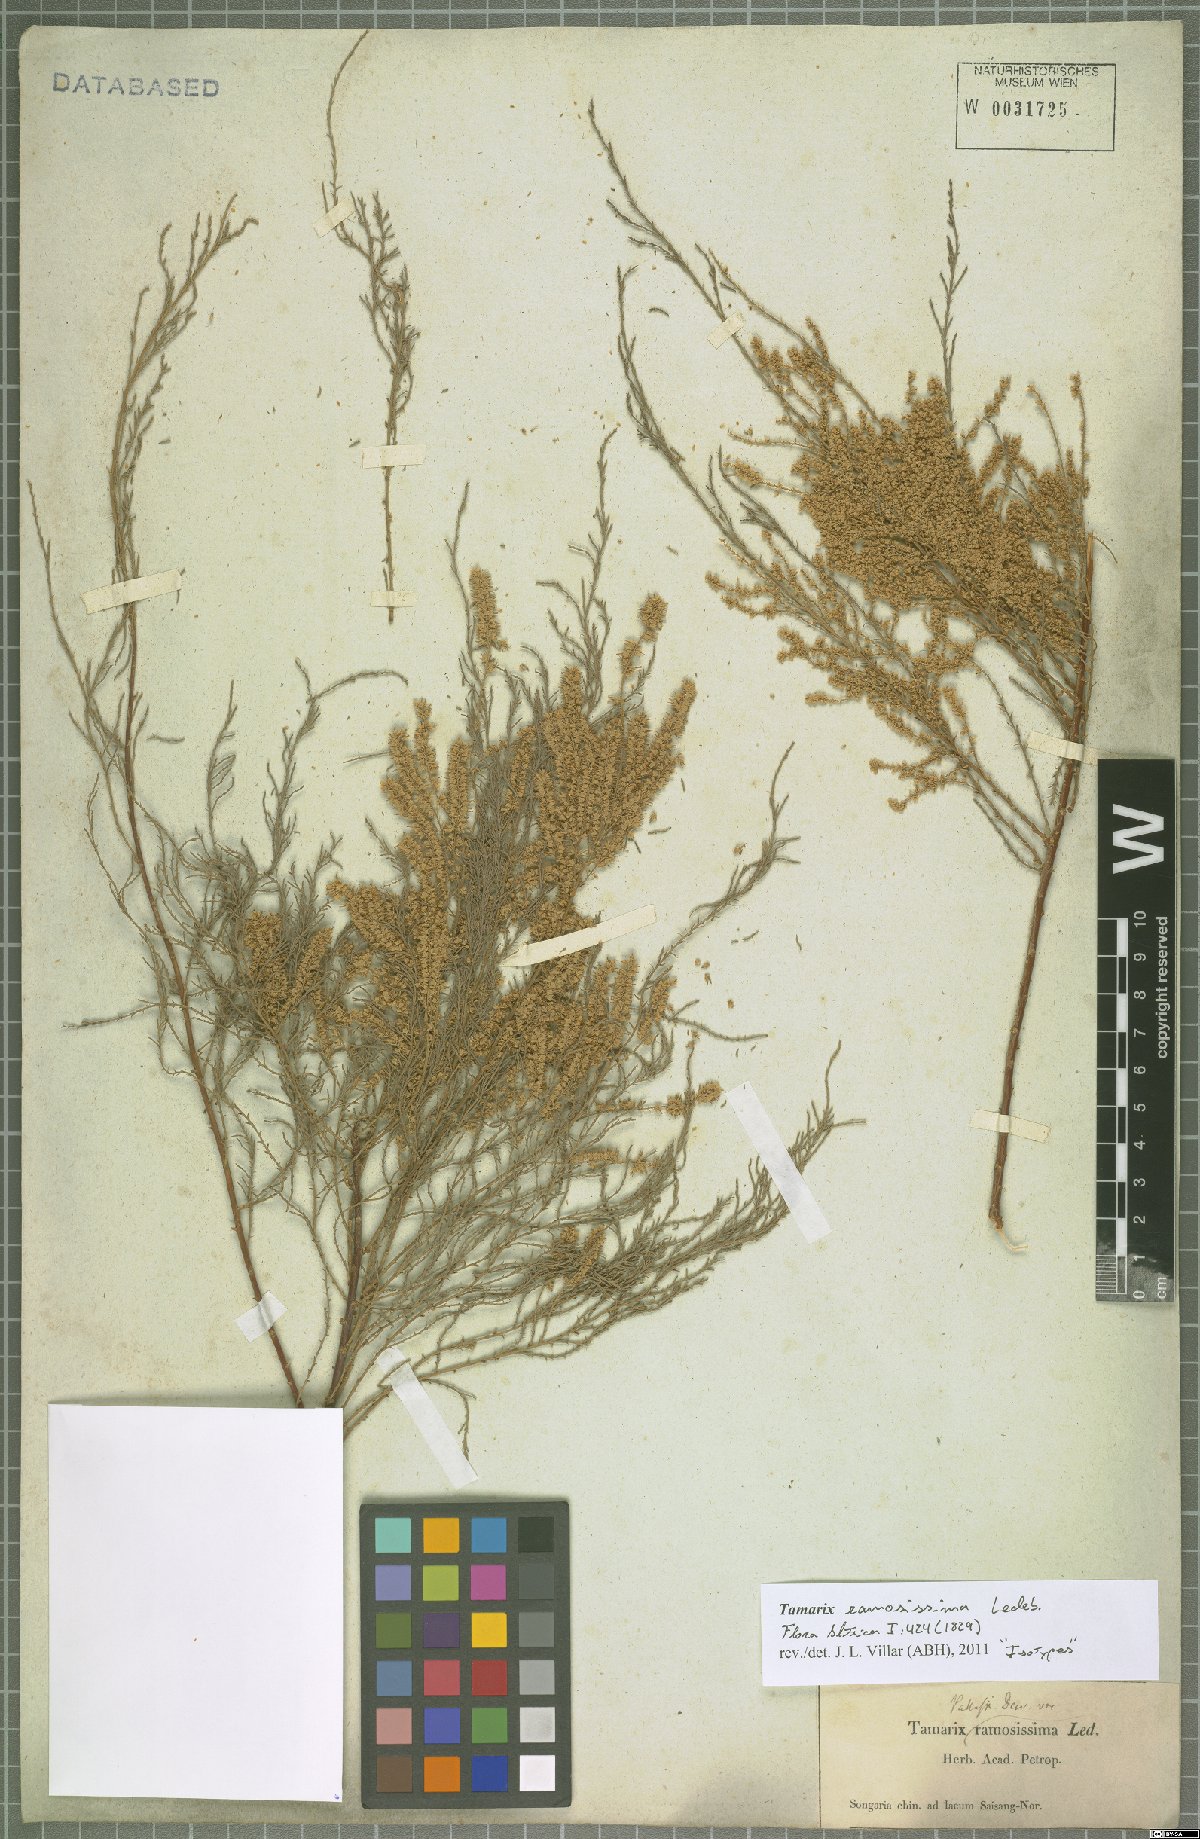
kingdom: Plantae
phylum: Tracheophyta
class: Magnoliopsida
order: Caryophyllales
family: Tamaricaceae
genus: Tamarix
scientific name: Tamarix ramosissima
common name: Pink tamarisk
